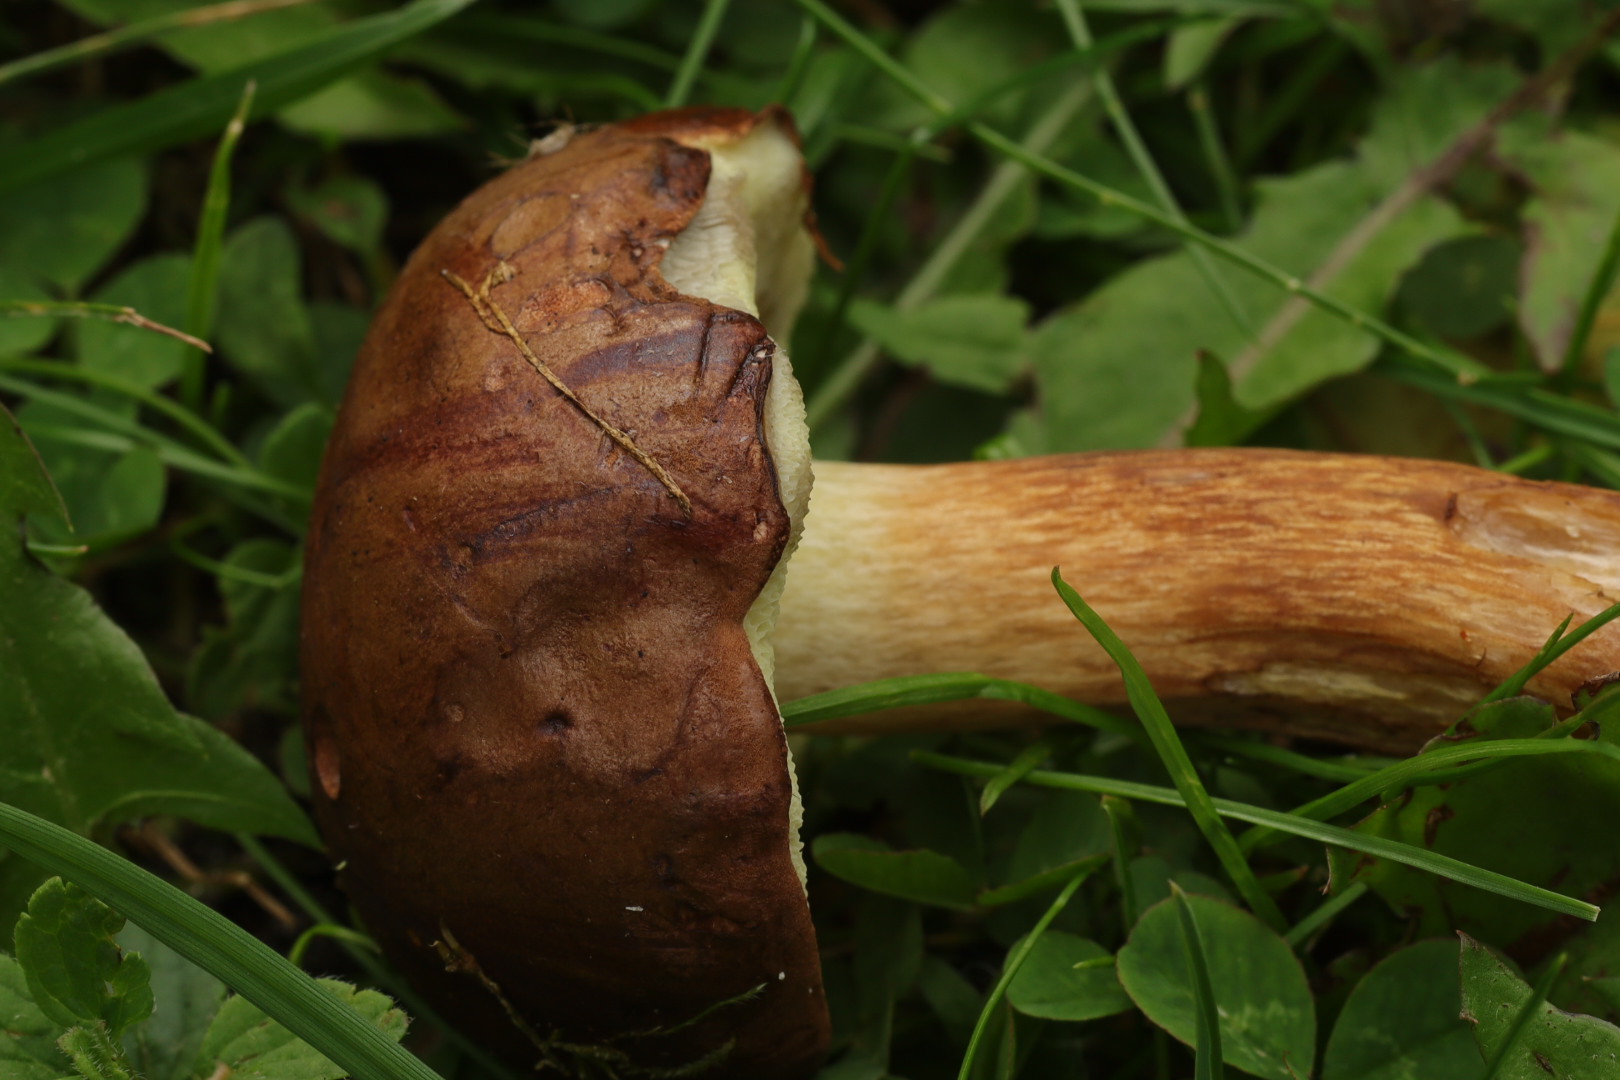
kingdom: Fungi
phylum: Basidiomycota
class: Agaricomycetes
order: Boletales
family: Boletaceae
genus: Imleria
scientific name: Imleria badia
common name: brunstokket rørhat
